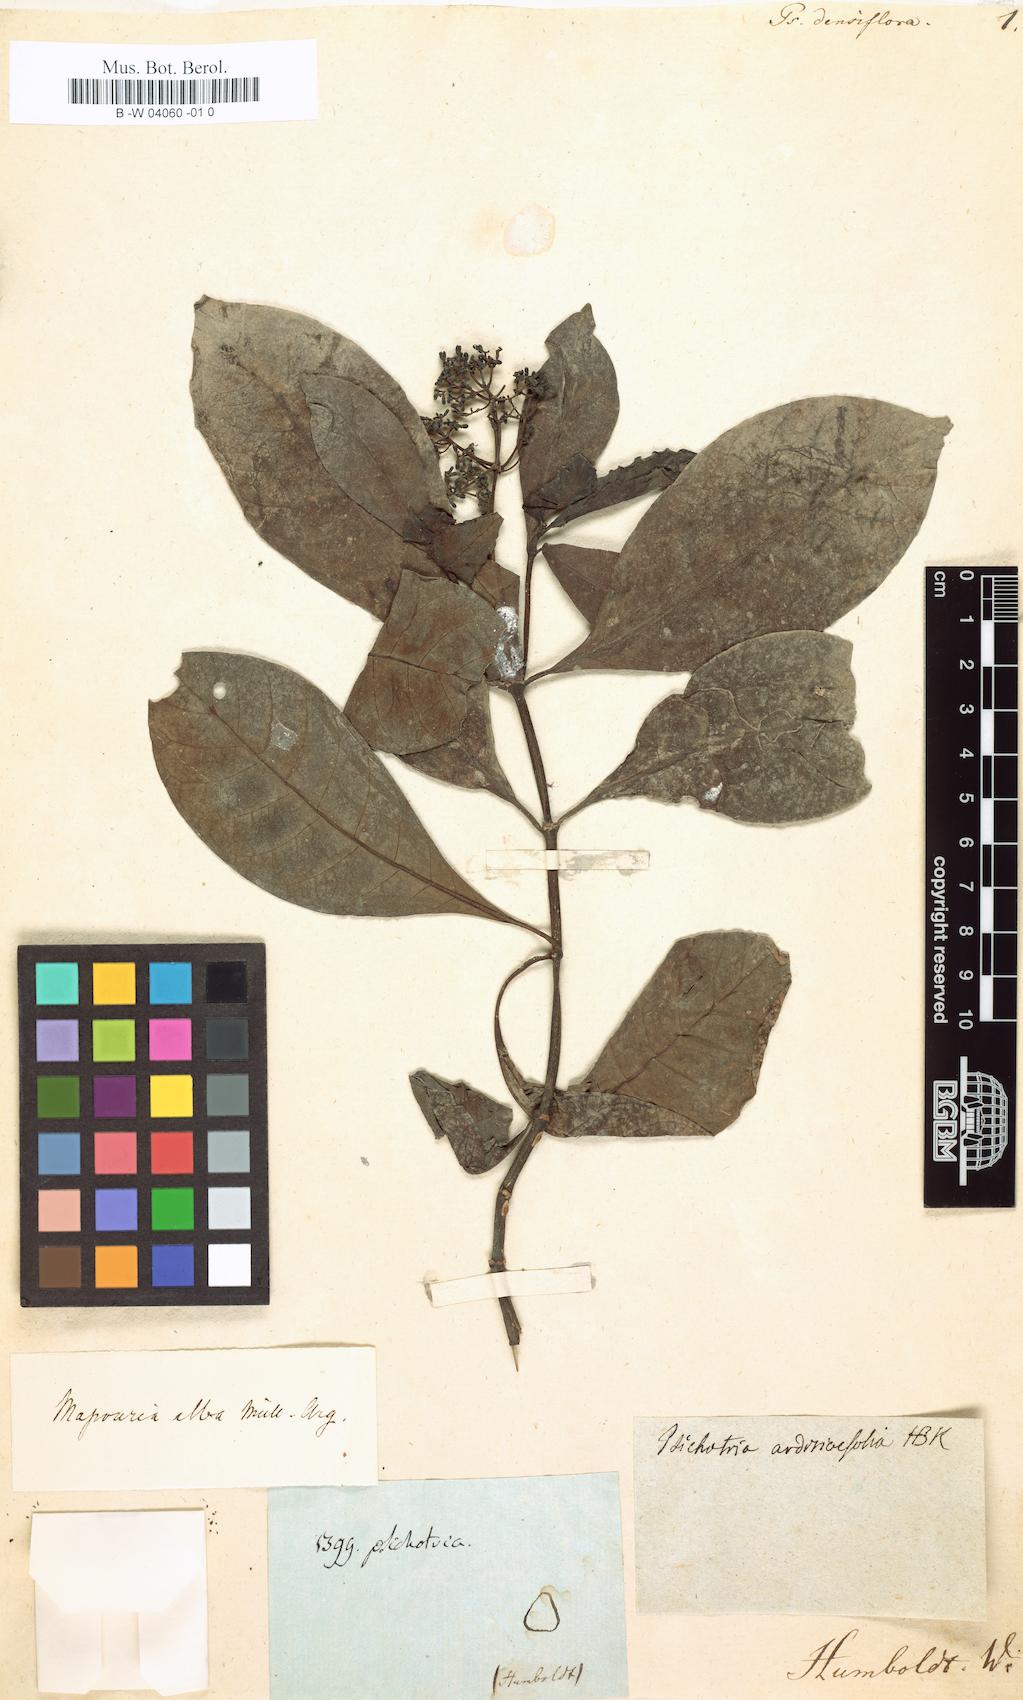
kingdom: Plantae
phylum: Tracheophyta
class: Magnoliopsida
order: Gentianales
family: Rubiaceae
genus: Psychotria
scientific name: Psychotria alba
